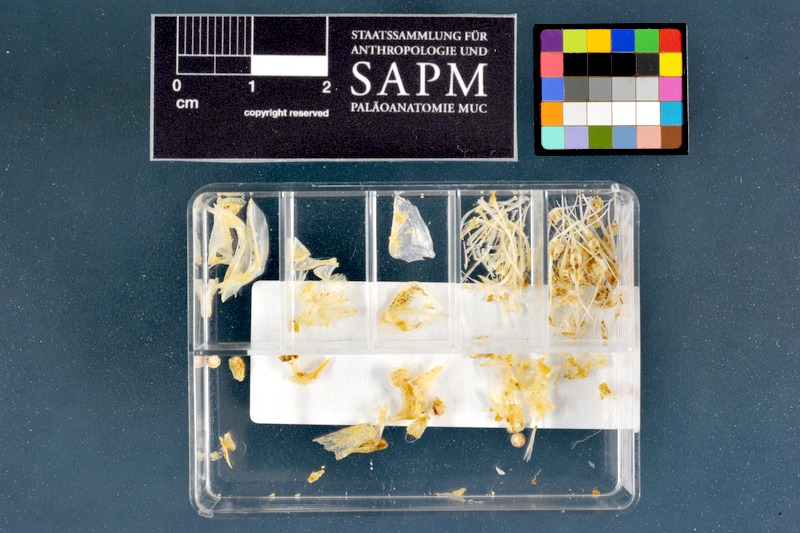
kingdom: Animalia
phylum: Chordata
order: Siluriformes
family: Schilbeidae
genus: Siluranodon
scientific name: Siluranodon auritus
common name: Butterfish
